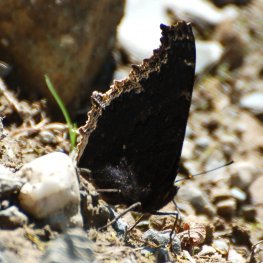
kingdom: Animalia
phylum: Arthropoda
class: Insecta
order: Lepidoptera
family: Nymphalidae
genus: Nymphalis
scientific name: Nymphalis antiopa
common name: Mourning Cloak
